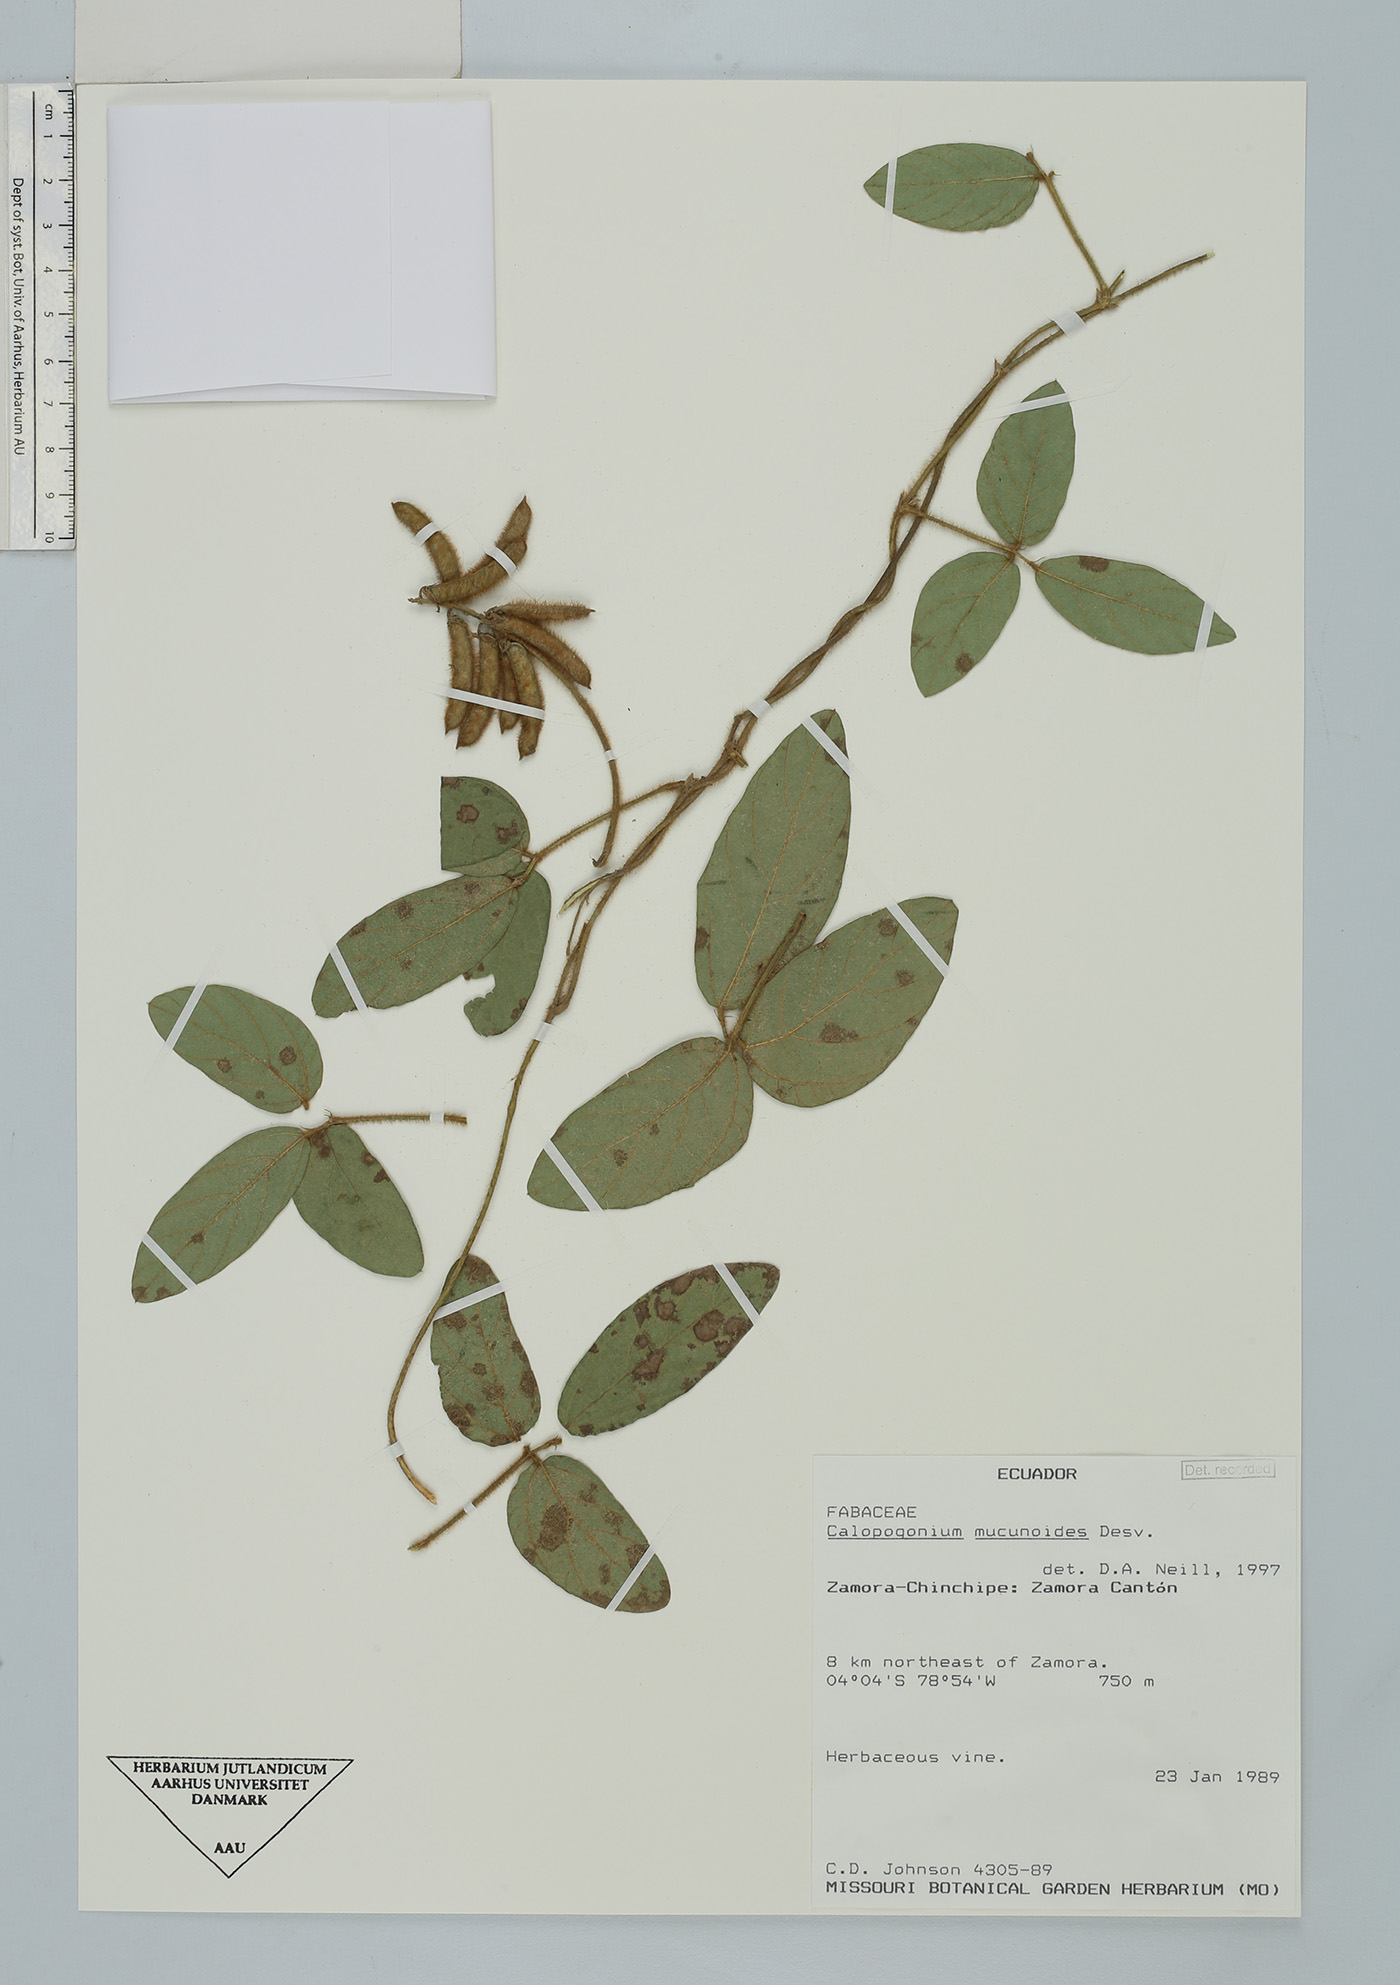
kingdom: Plantae
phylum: Tracheophyta
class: Magnoliopsida
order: Fabales
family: Fabaceae
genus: Calopogonium
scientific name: Calopogonium mucunoides
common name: Calopo
